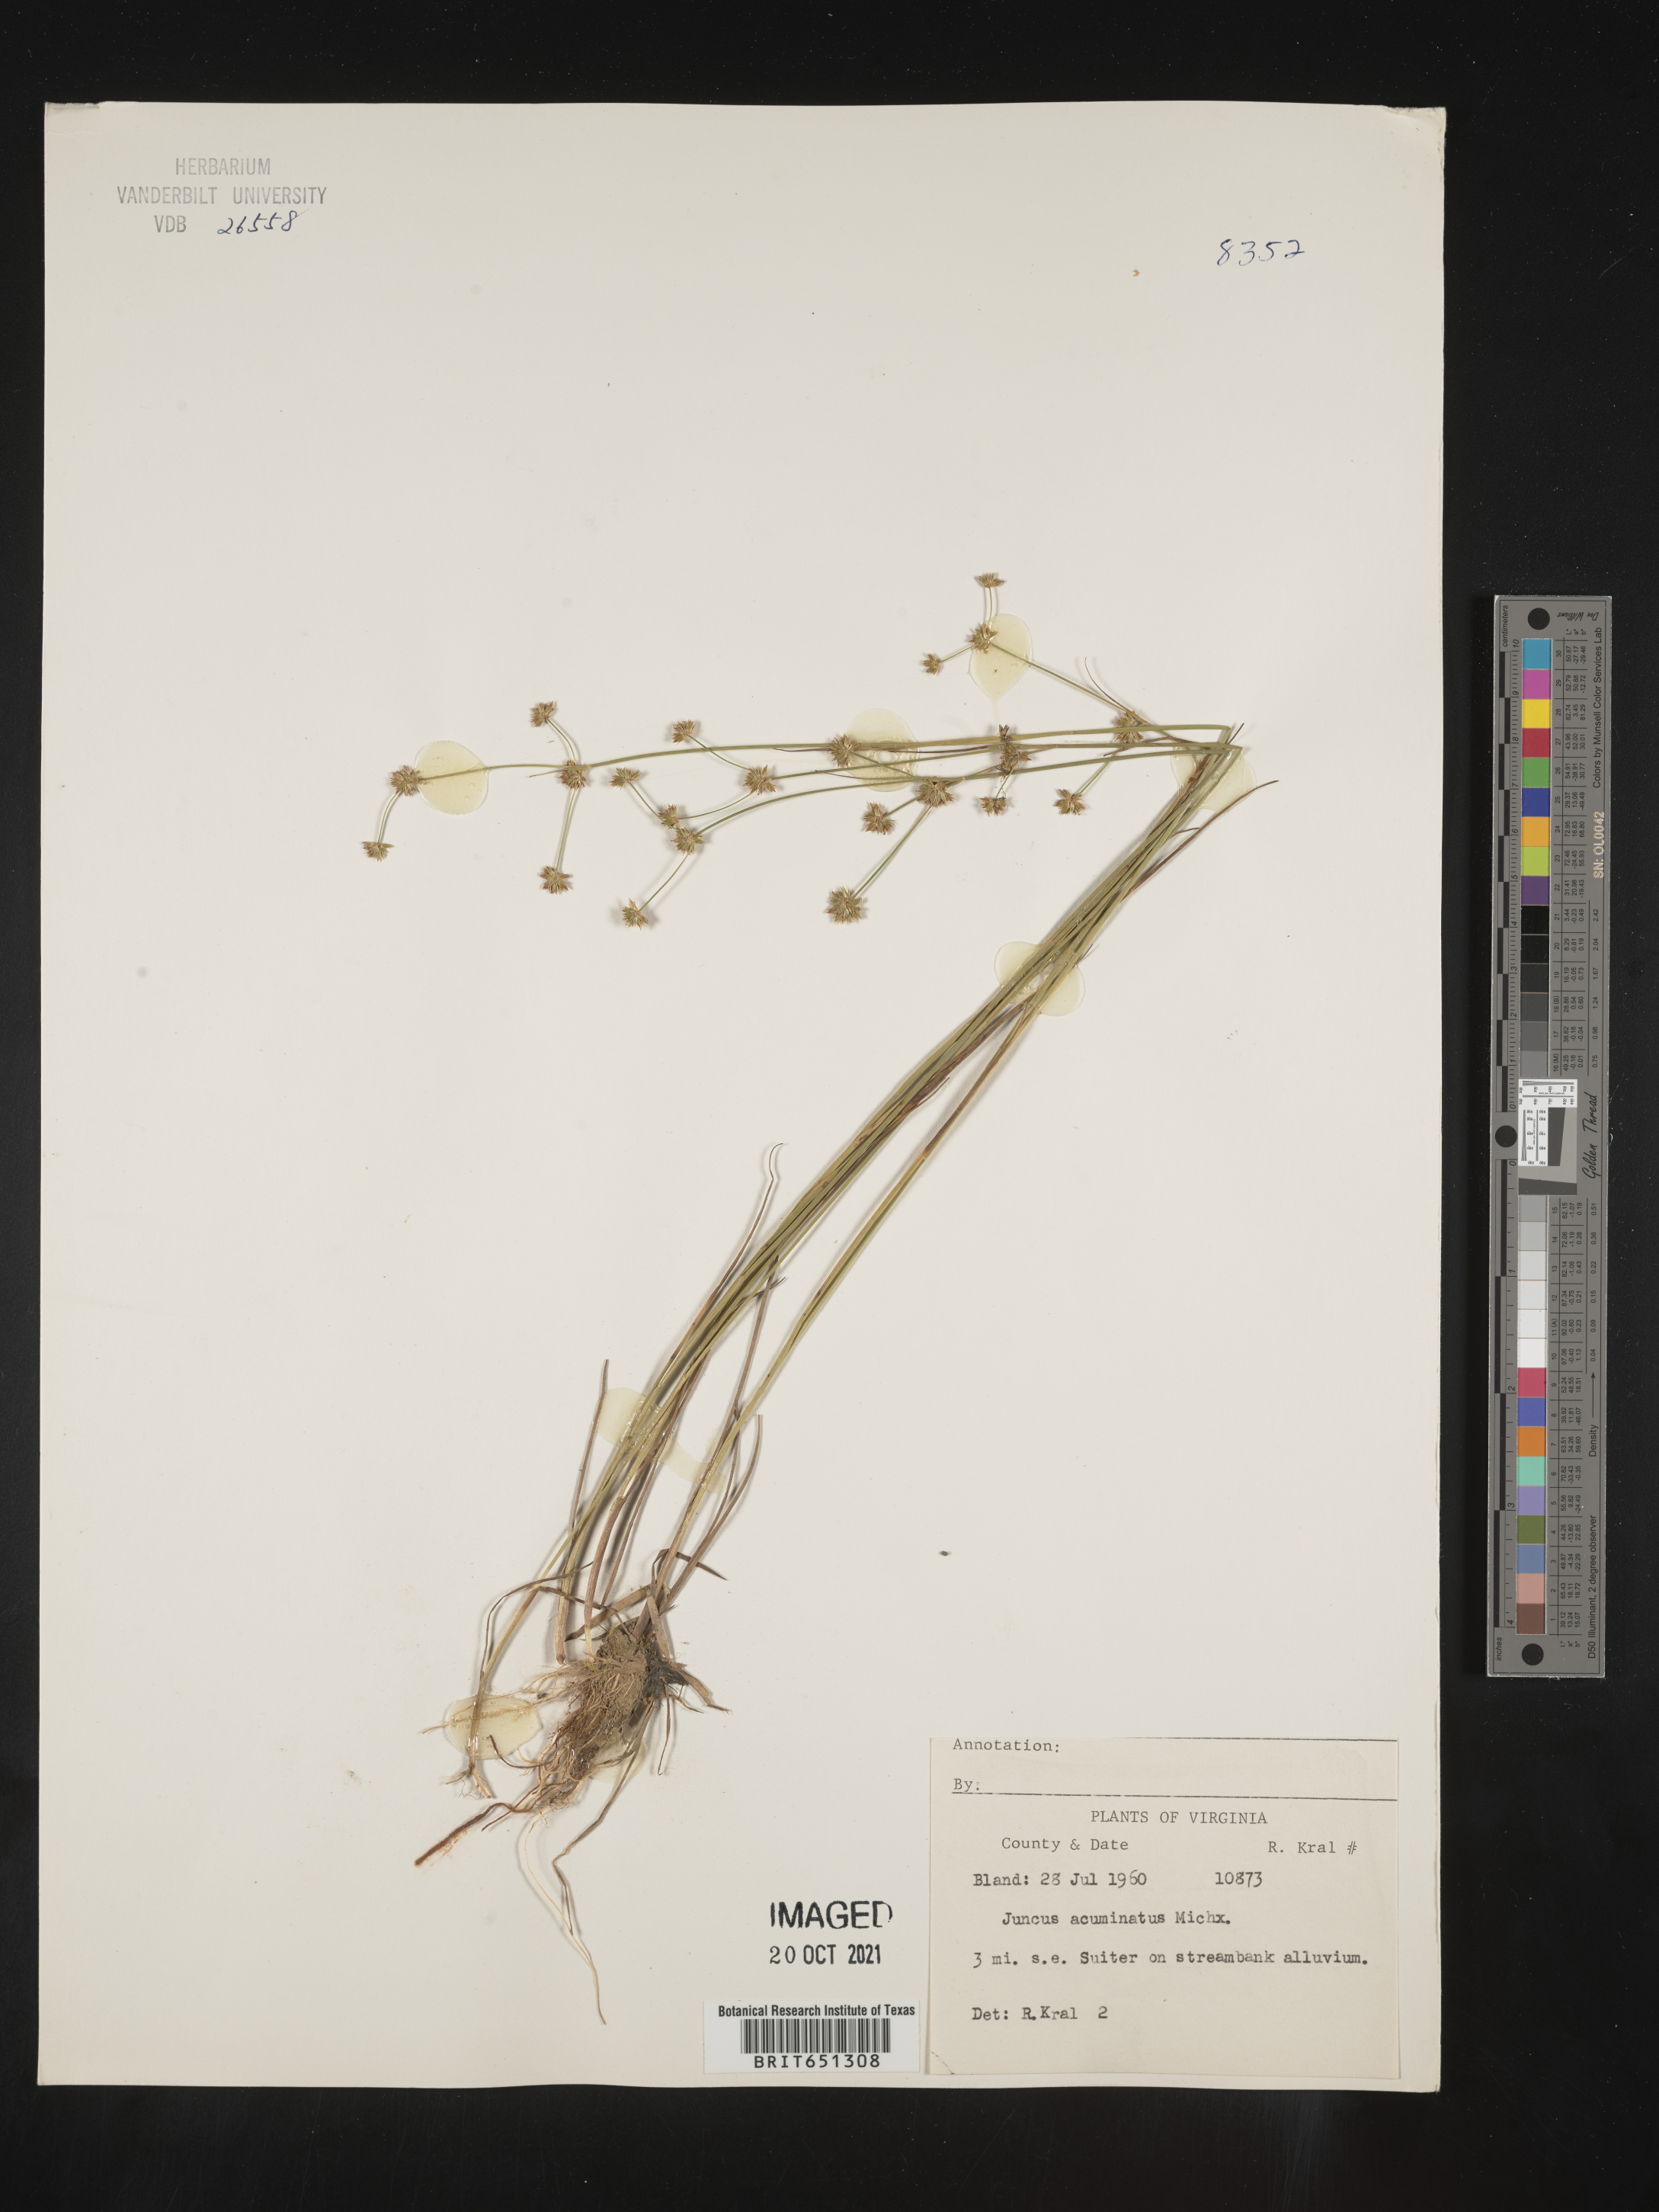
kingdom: Plantae
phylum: Tracheophyta
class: Liliopsida
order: Poales
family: Juncaceae
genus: Juncus
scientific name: Juncus acuminatus
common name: Knotty-leaved rush
